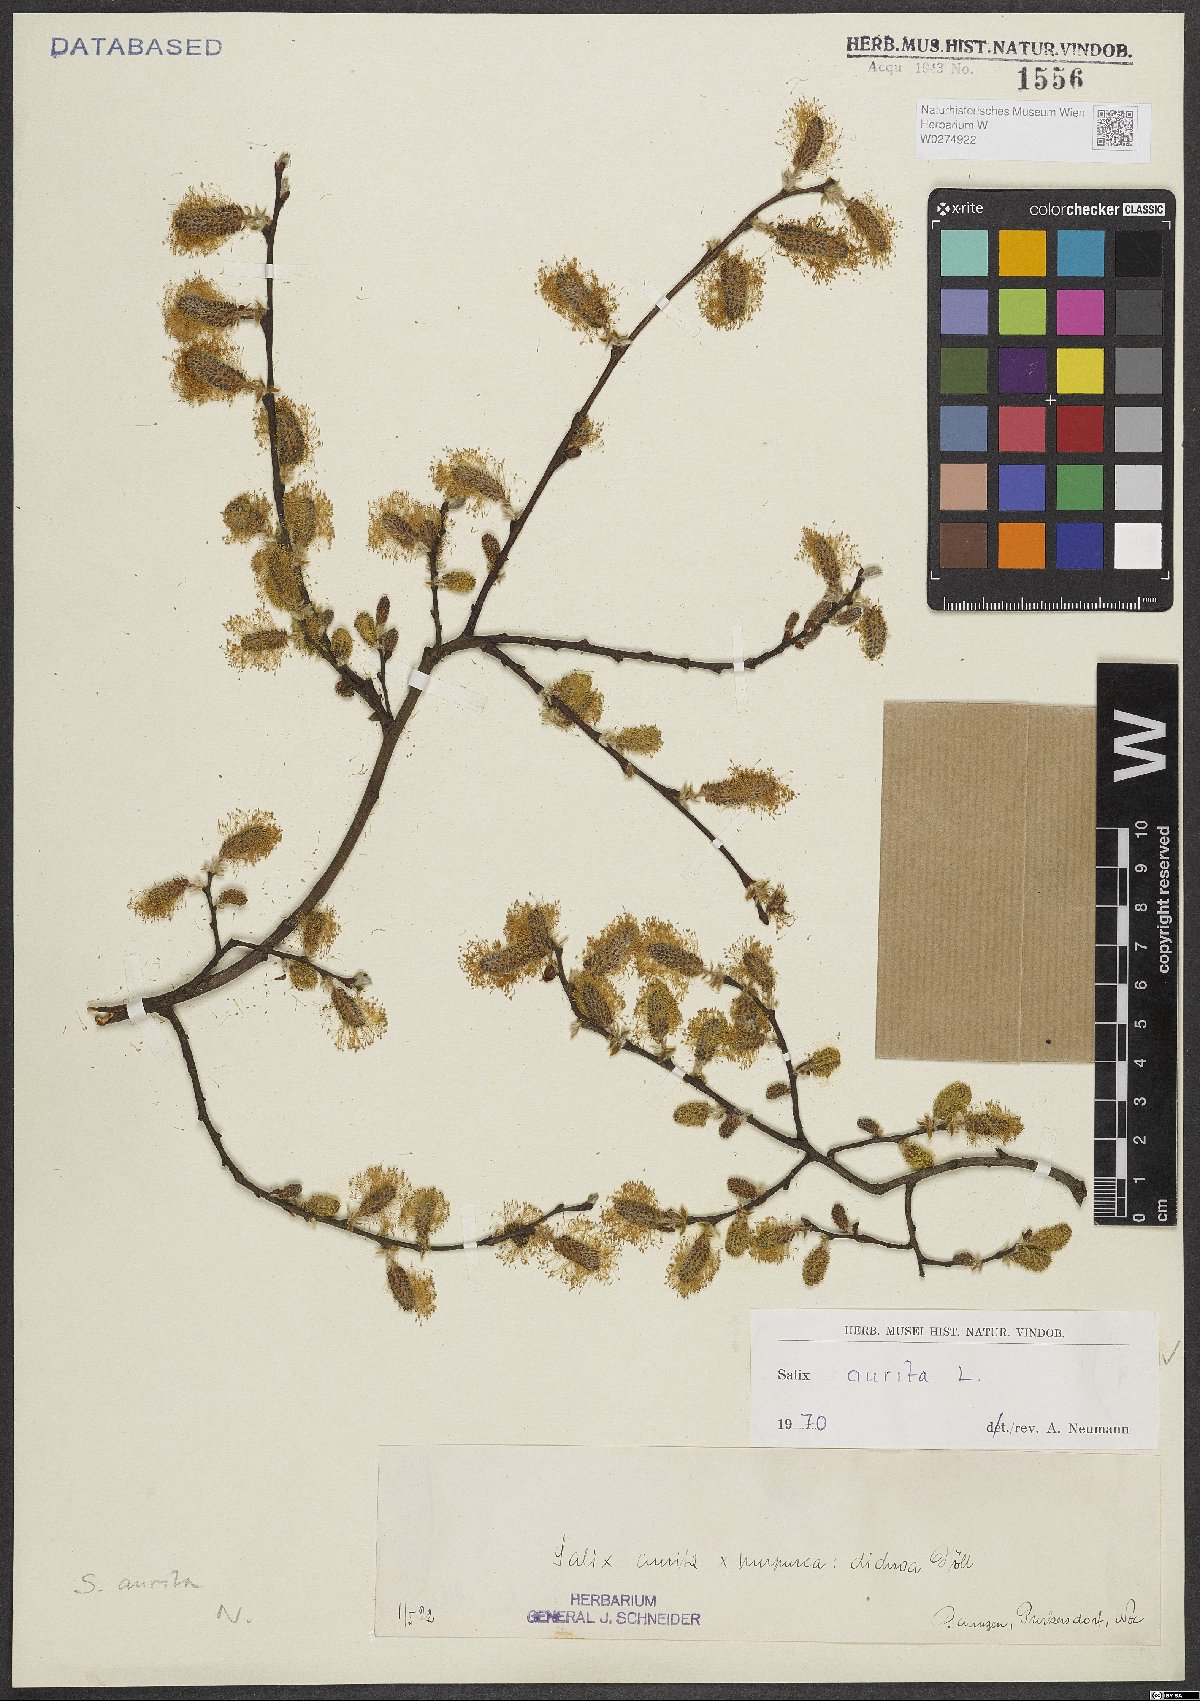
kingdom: Plantae
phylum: Tracheophyta
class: Magnoliopsida
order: Malpighiales
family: Salicaceae
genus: Salix
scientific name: Salix aurita
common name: Eared willow
